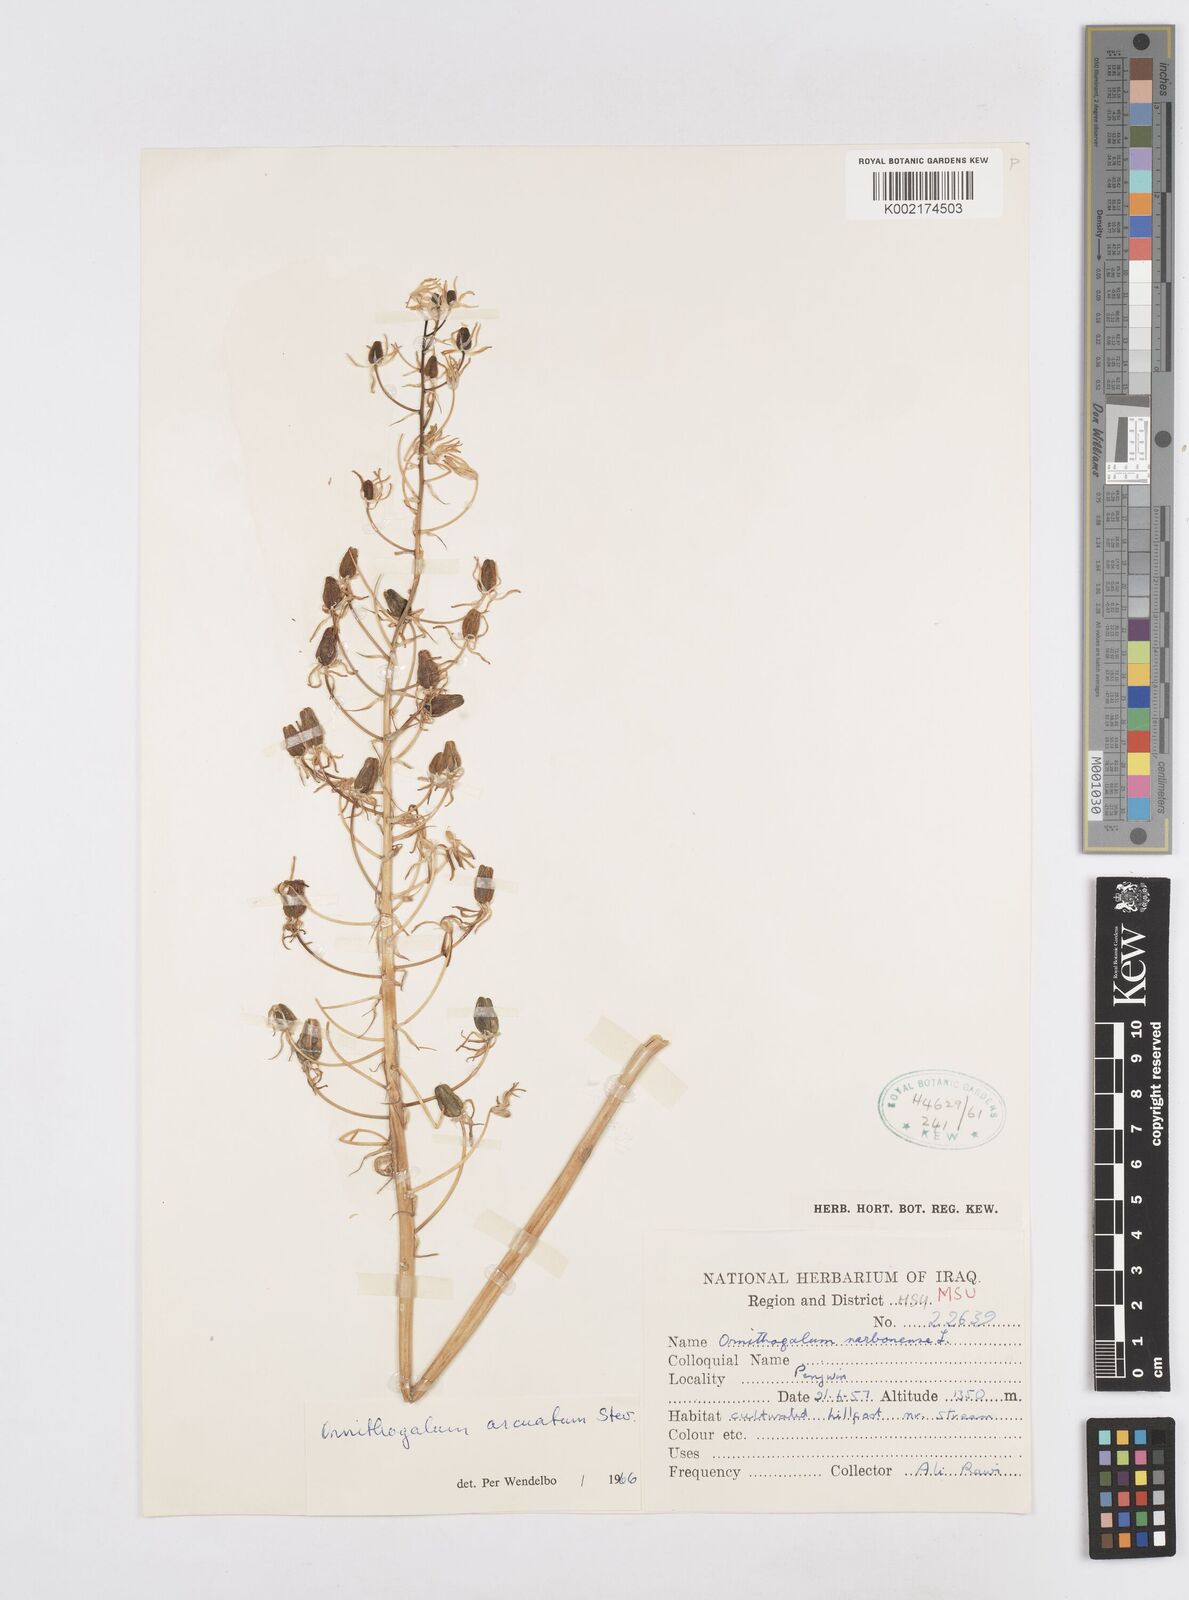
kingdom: Plantae
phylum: Tracheophyta
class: Liliopsida
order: Asparagales
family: Asparagaceae
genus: Ornithogalum
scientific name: Ornithogalum arcuatum
